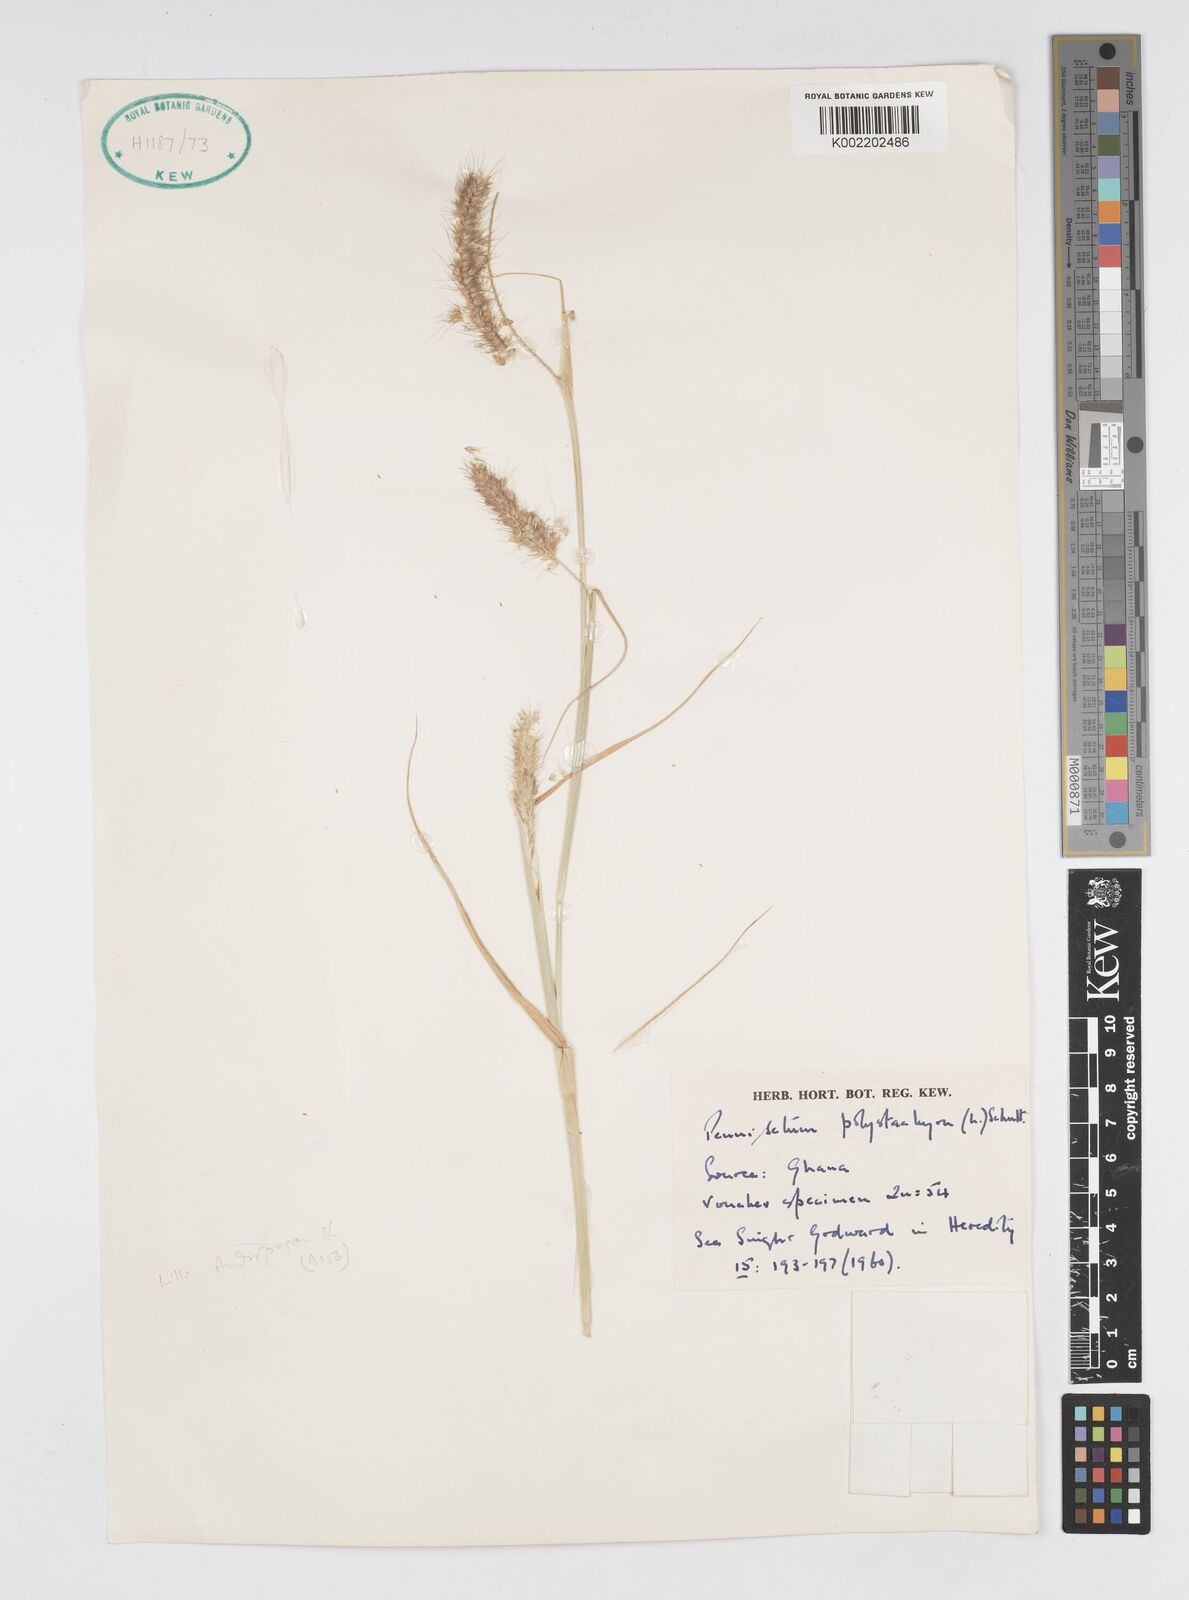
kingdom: Plantae
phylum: Tracheophyta
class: Liliopsida
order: Poales
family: Poaceae
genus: Setaria
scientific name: Setaria parviflora
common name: Knotroot bristle-grass
